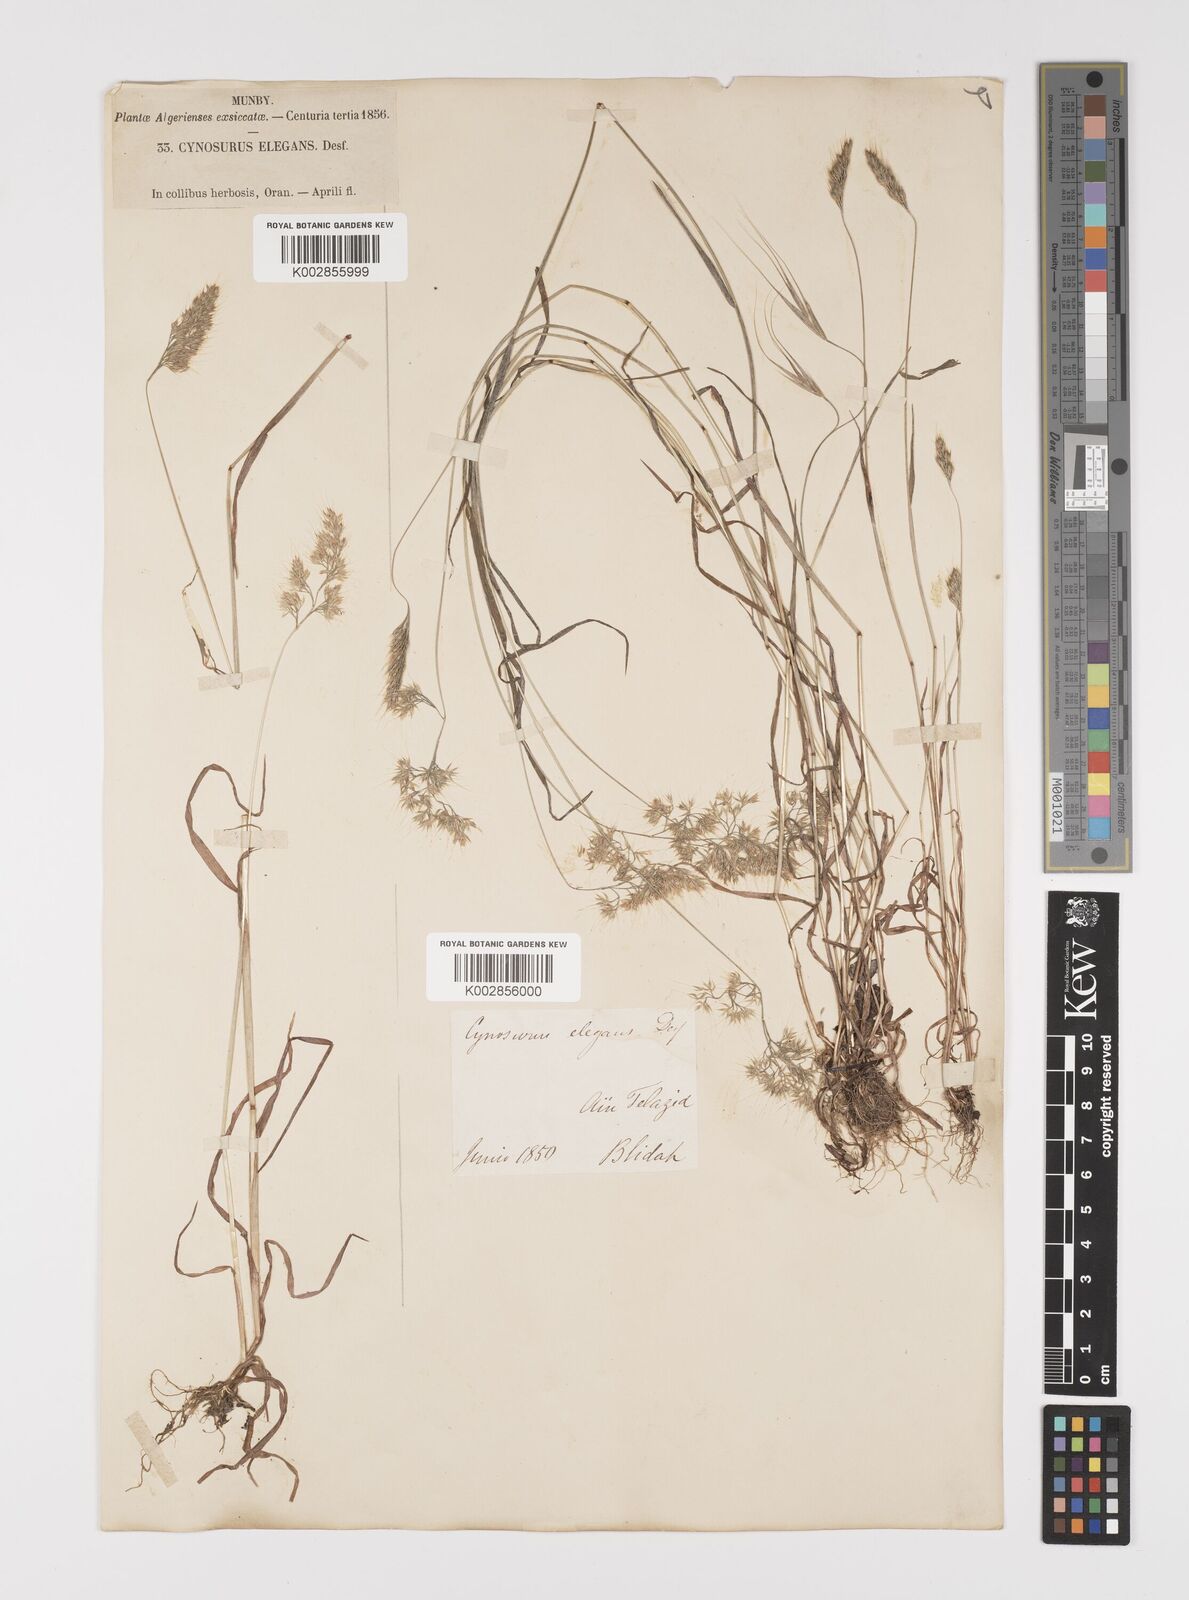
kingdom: Plantae
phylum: Tracheophyta
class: Liliopsida
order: Poales
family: Poaceae
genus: Cynosurus
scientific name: Cynosurus elegans
